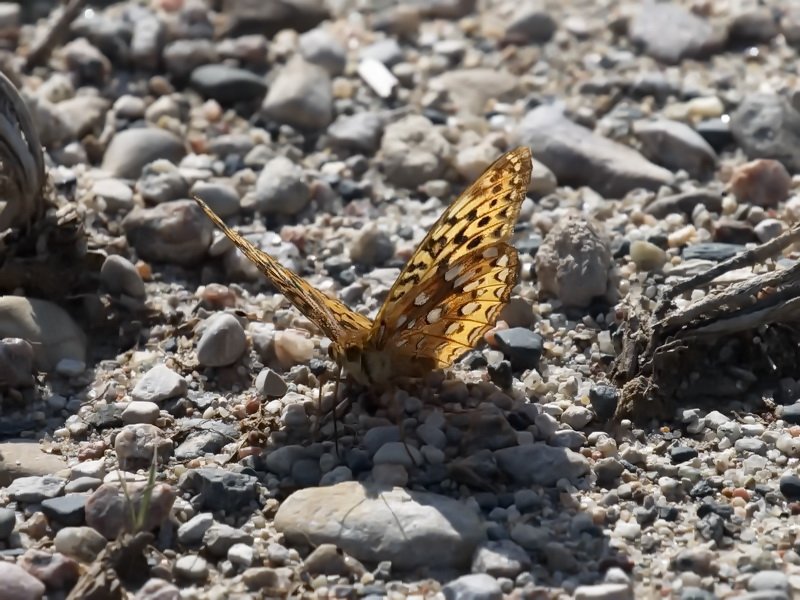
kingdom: Animalia
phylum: Arthropoda
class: Insecta
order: Lepidoptera
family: Nymphalidae
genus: Speyeria
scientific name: Speyeria cybele
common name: Great Spangled Fritillary
